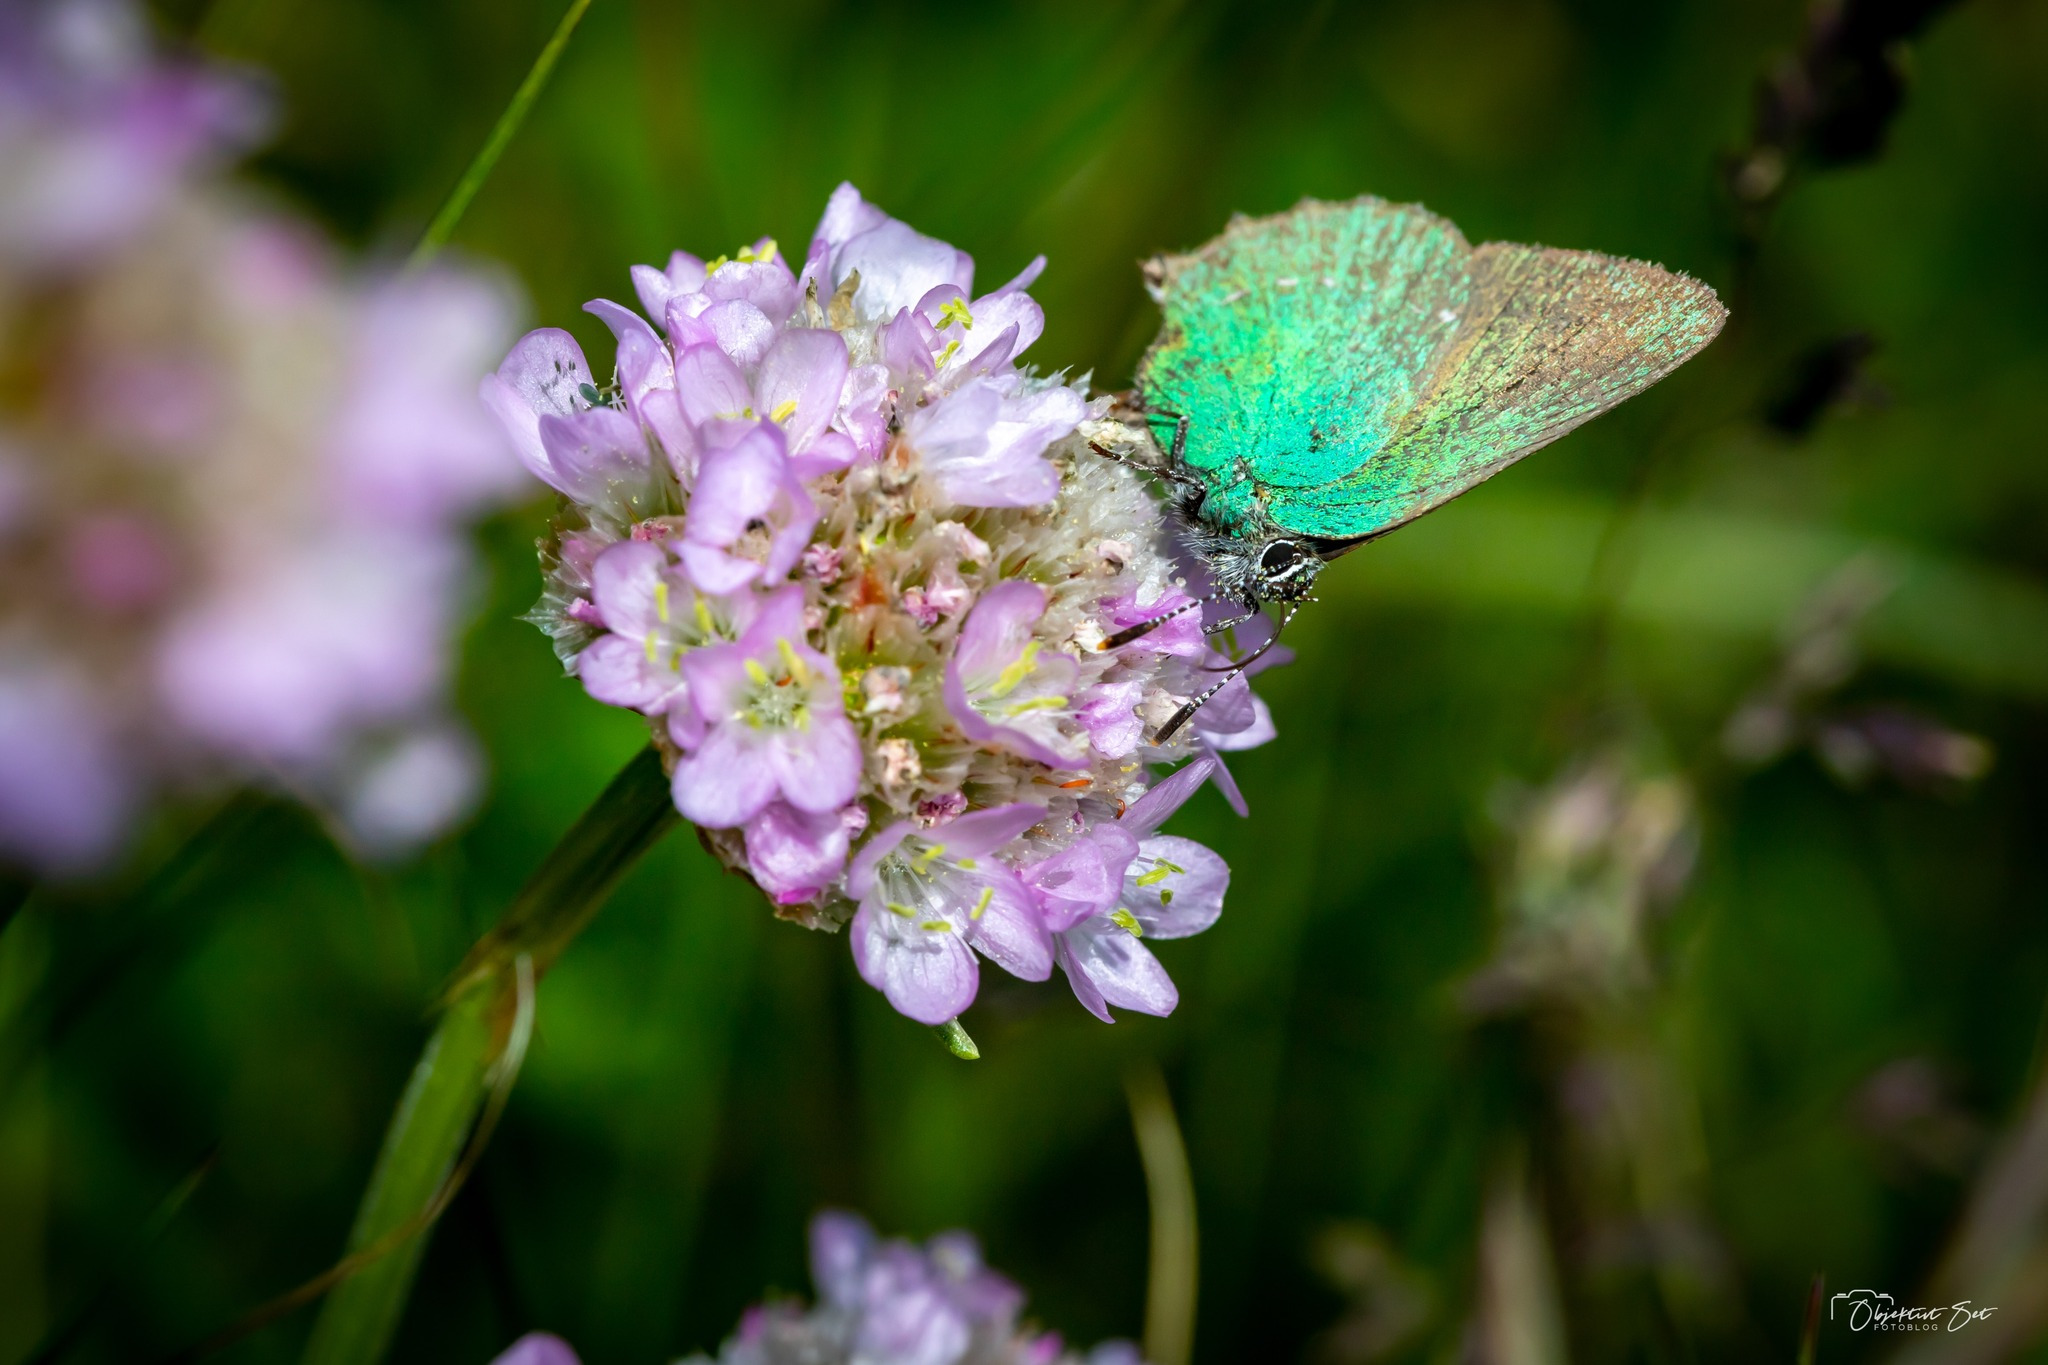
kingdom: Animalia
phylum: Arthropoda
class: Insecta
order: Lepidoptera
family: Lycaenidae
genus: Callophrys
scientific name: Callophrys rubi
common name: Grøn busksommerfugl
